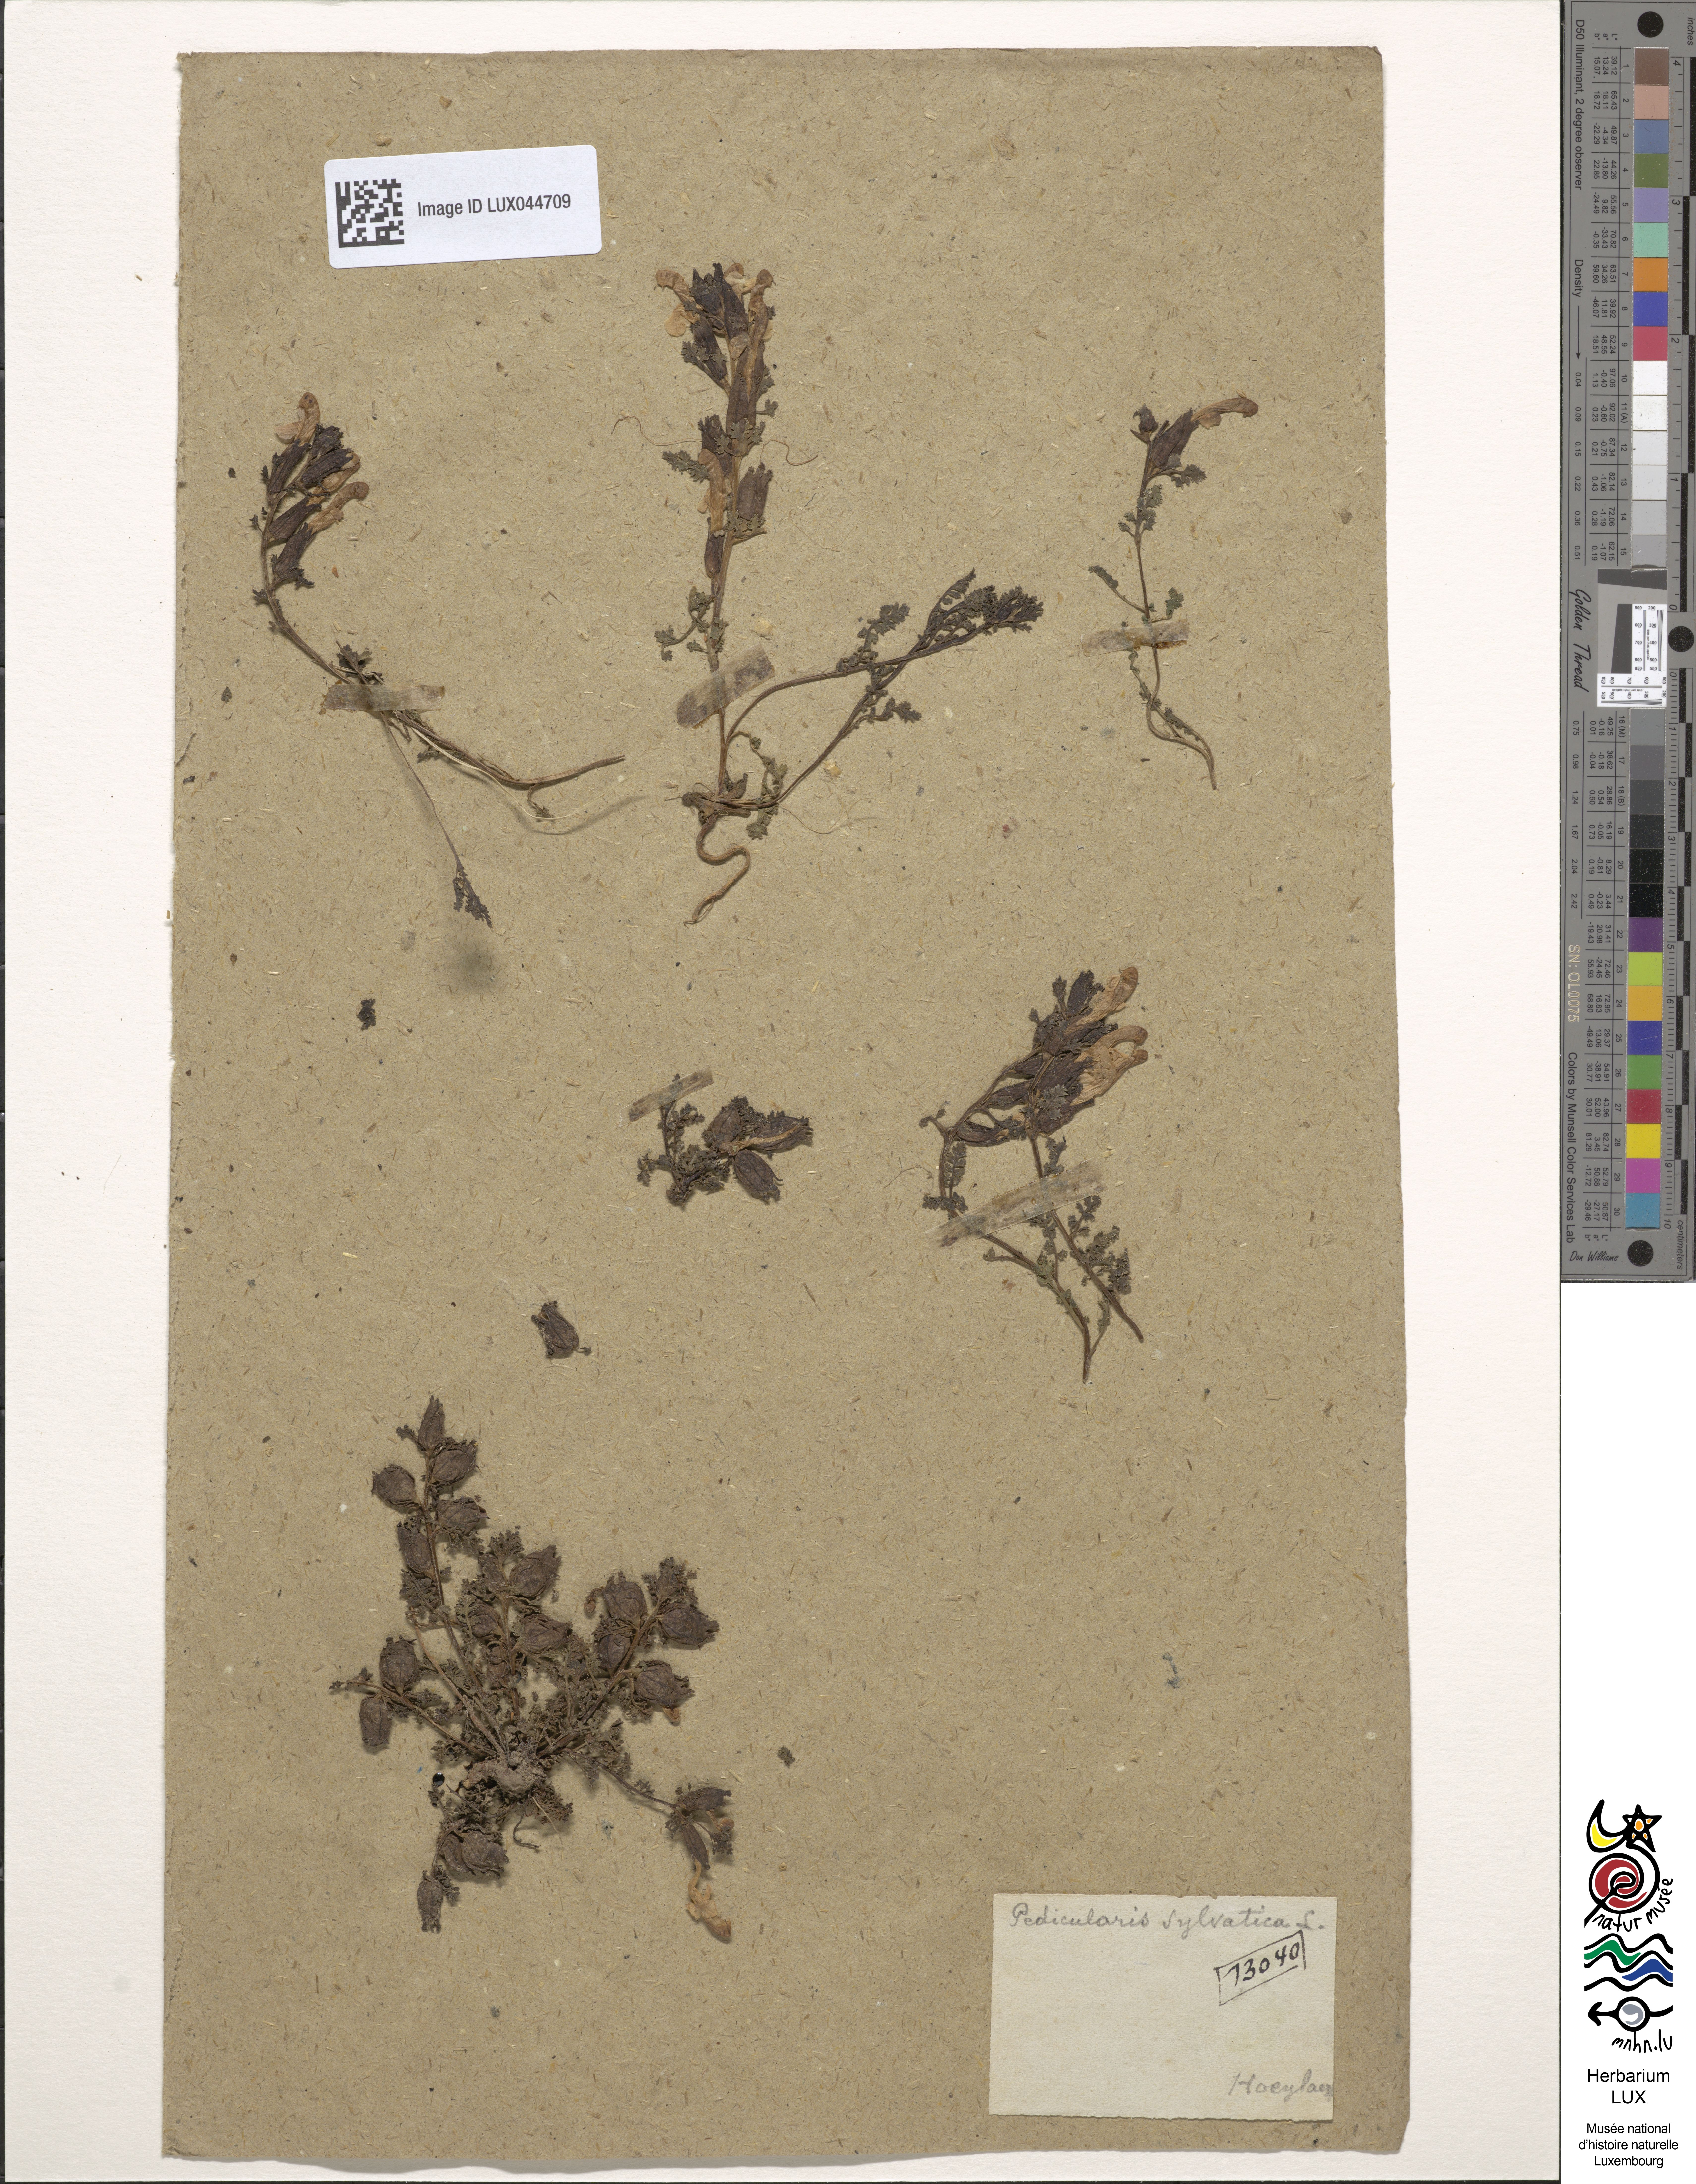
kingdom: Plantae
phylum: Tracheophyta
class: Magnoliopsida
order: Lamiales
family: Orobanchaceae
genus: Pedicularis
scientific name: Pedicularis sylvatica
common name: Lousewort
